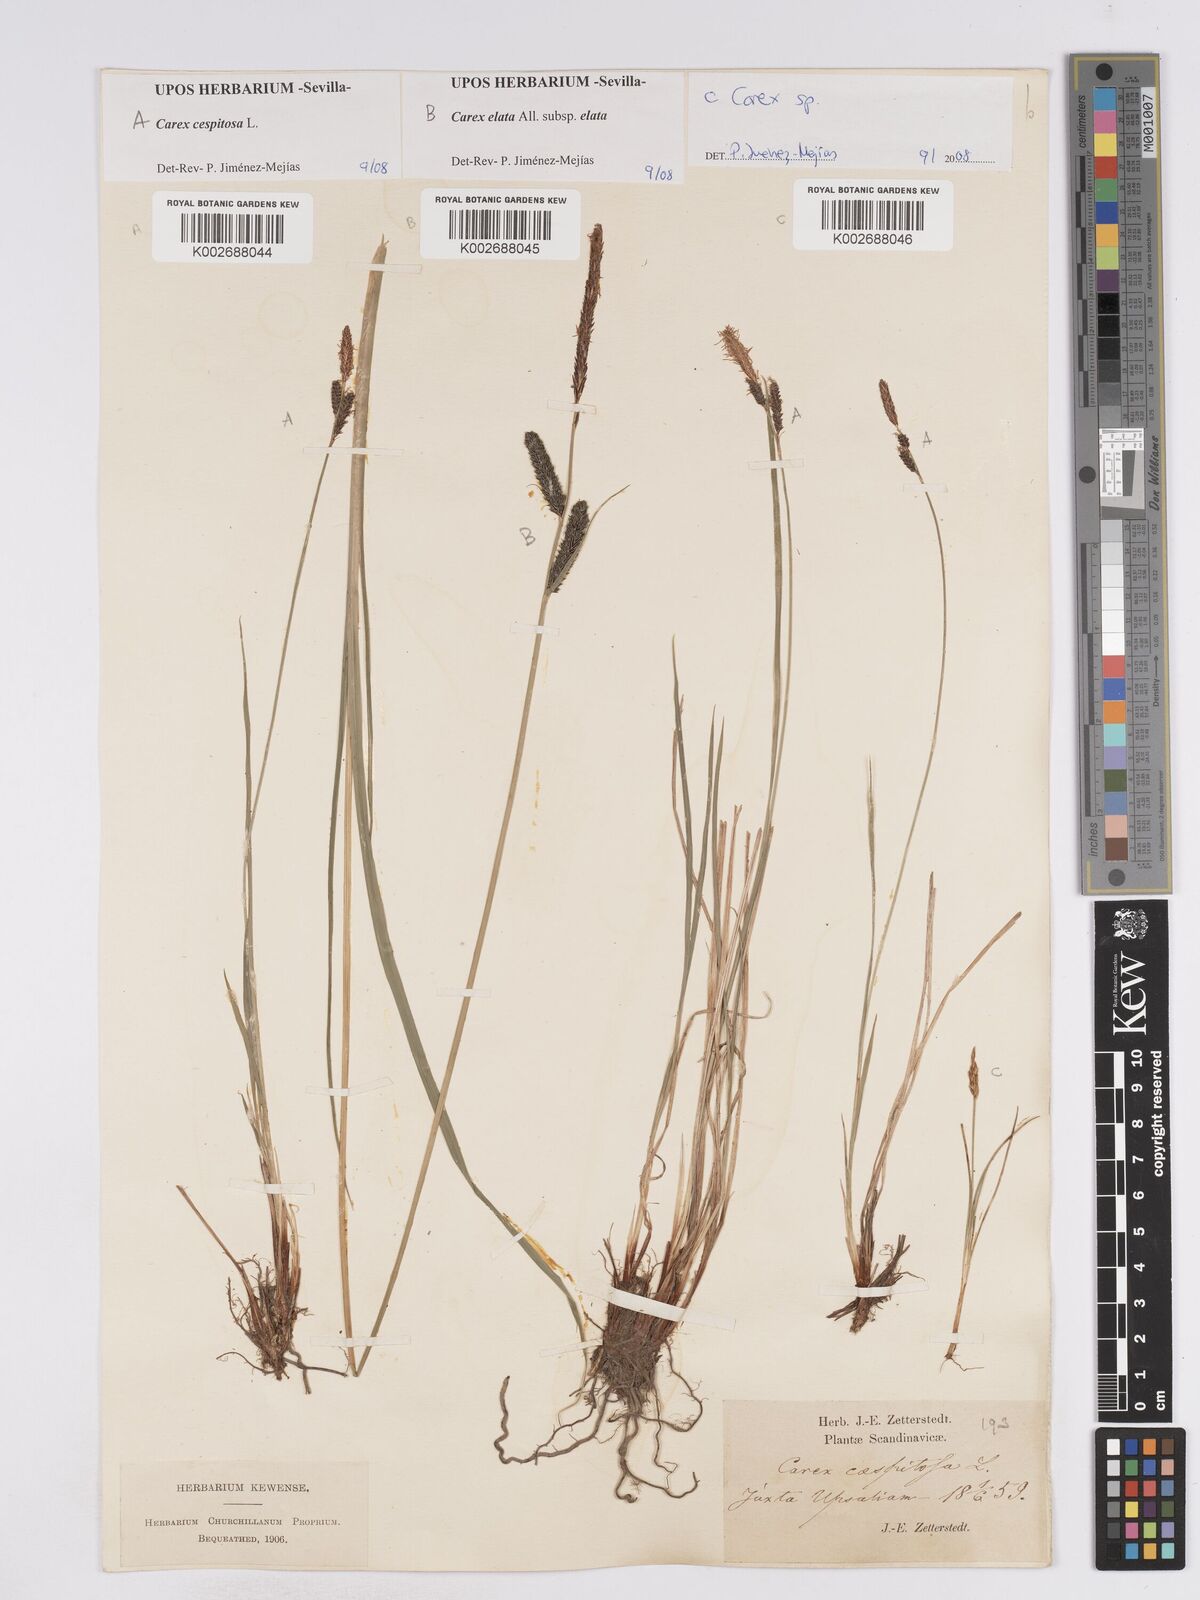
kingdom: Plantae
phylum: Tracheophyta
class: Liliopsida
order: Poales
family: Cyperaceae
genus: Carex
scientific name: Carex
